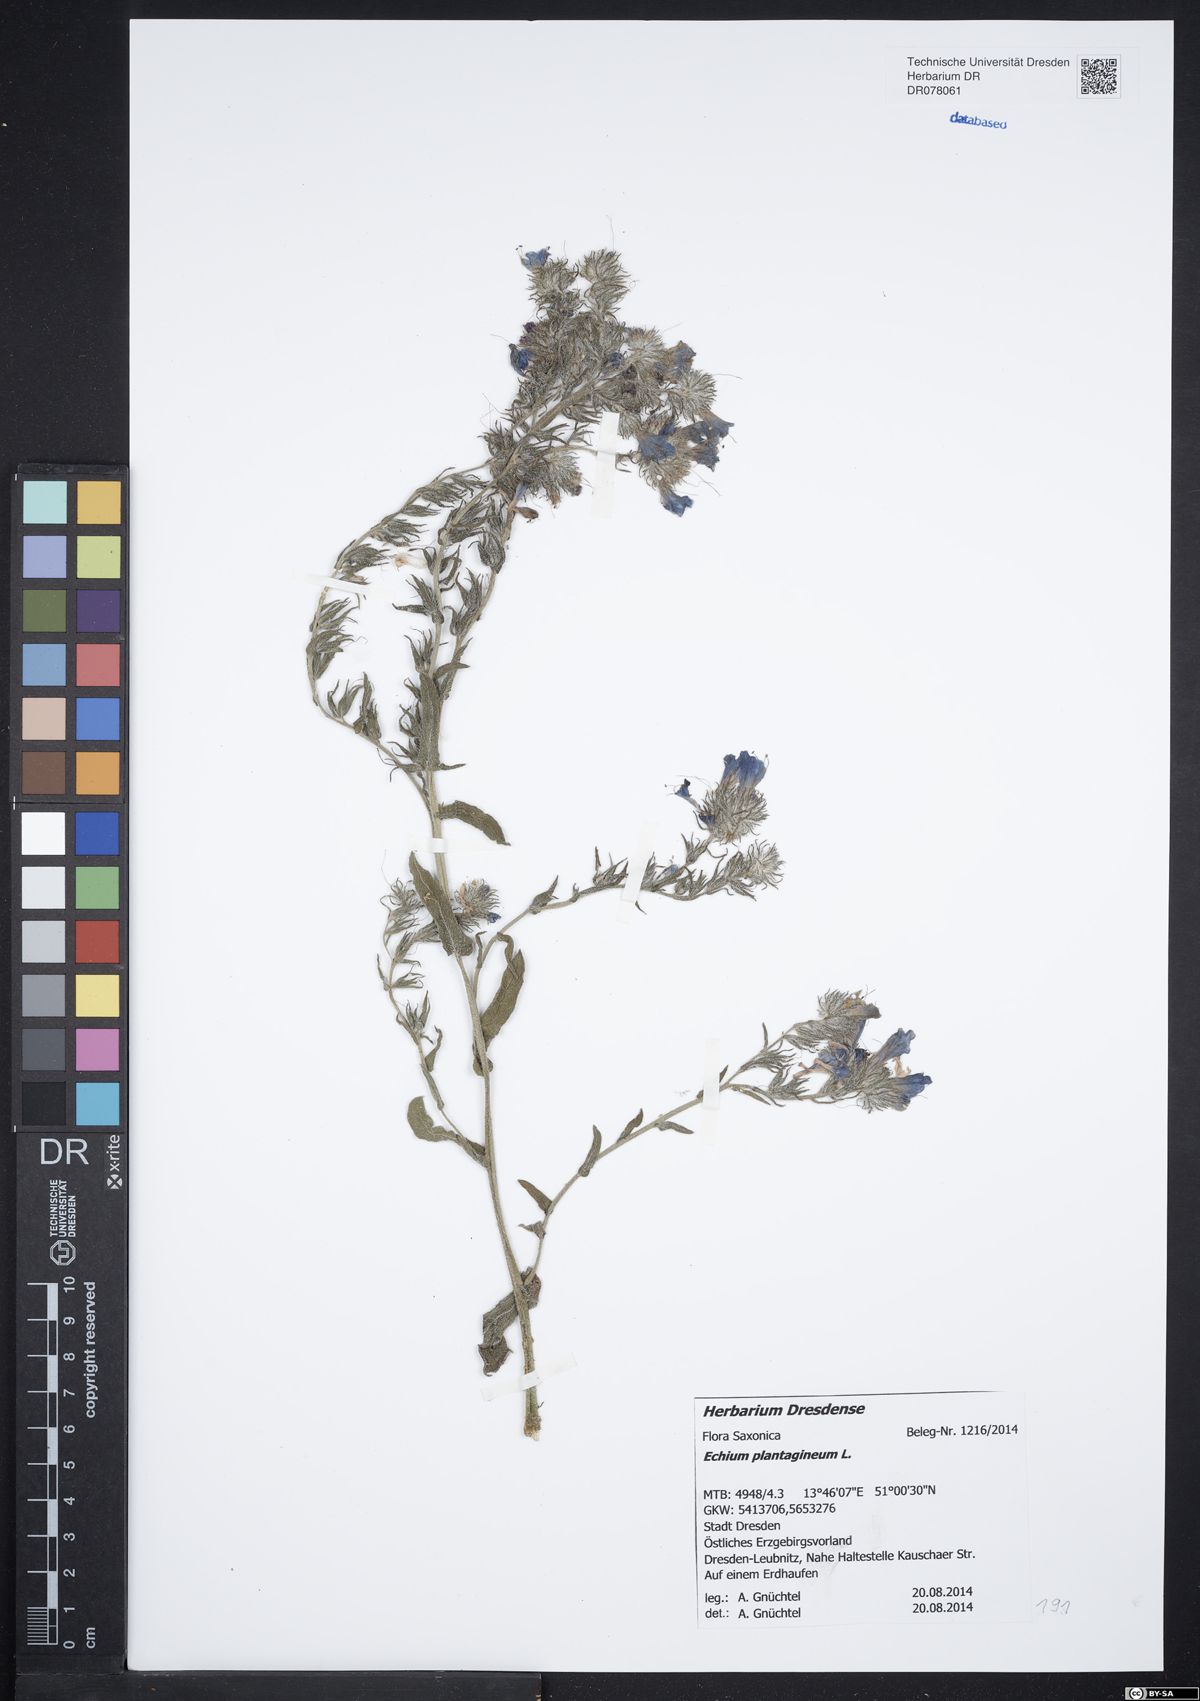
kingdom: Plantae
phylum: Tracheophyta
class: Magnoliopsida
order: Boraginales
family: Boraginaceae
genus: Echium
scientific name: Echium plantagineum
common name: Purple viper's-bugloss
